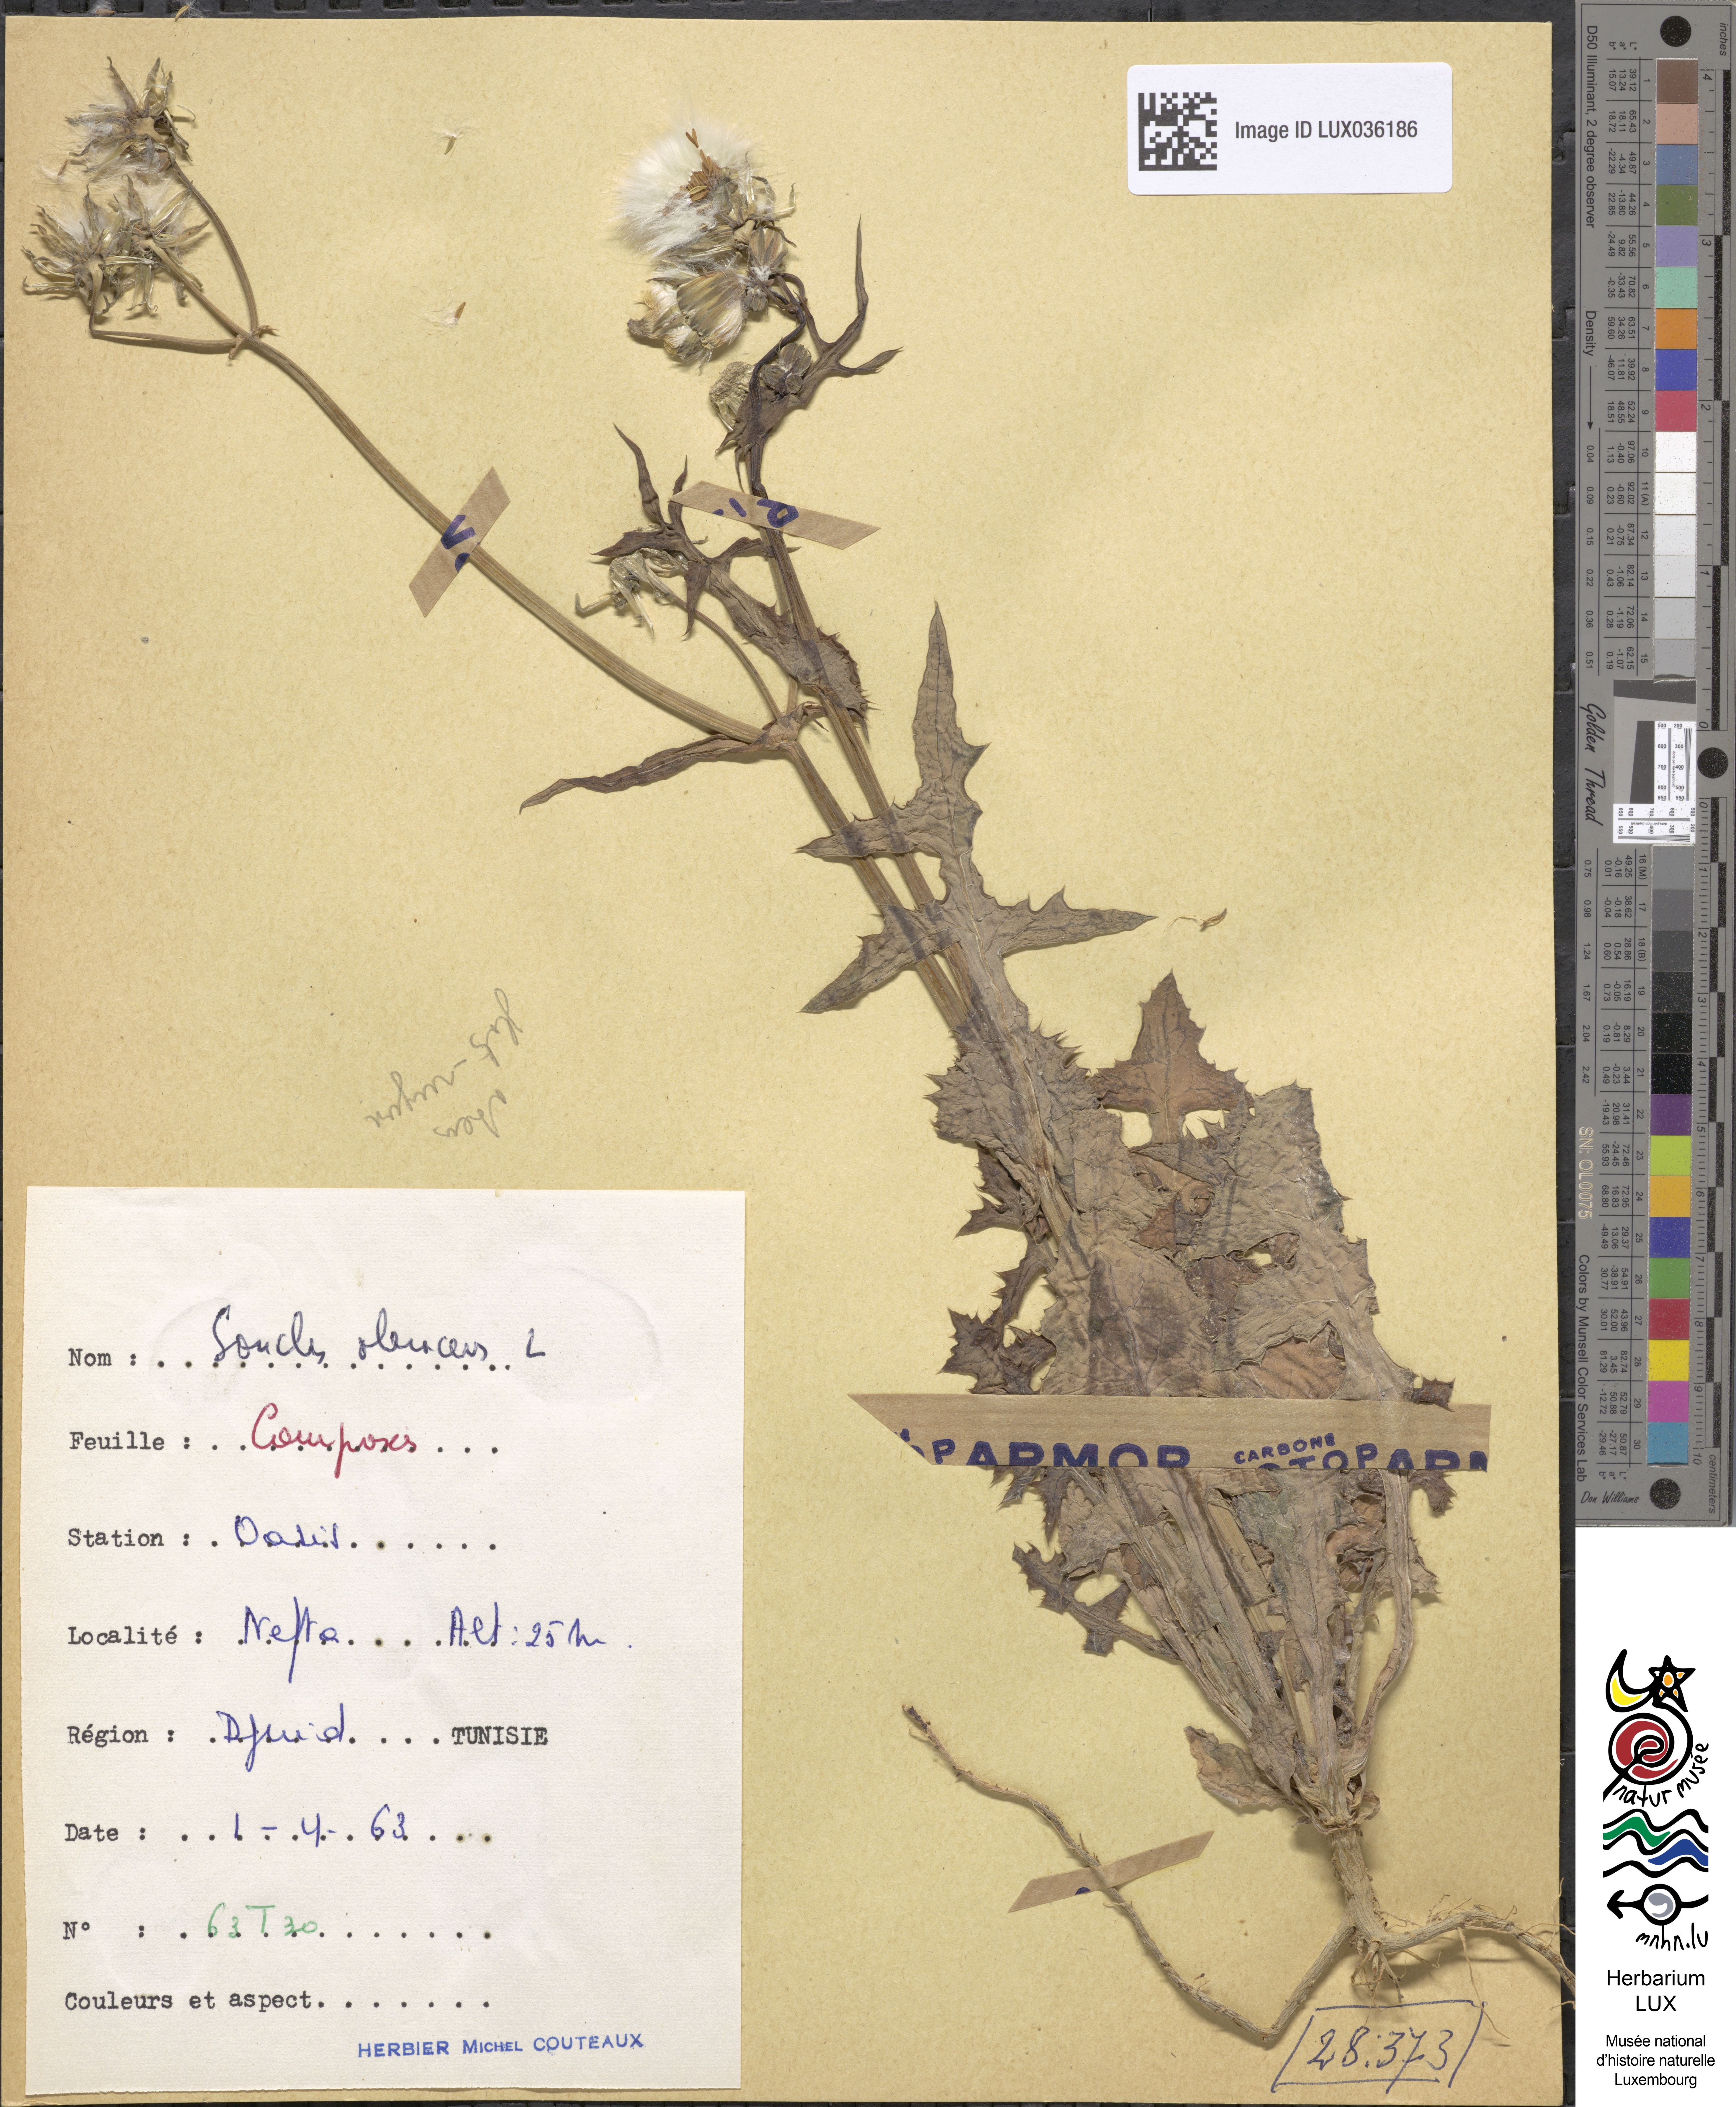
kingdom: Plantae
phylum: Tracheophyta
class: Magnoliopsida
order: Asterales
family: Asteraceae
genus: Sonchus
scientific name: Sonchus oleraceus
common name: Common sowthistle
